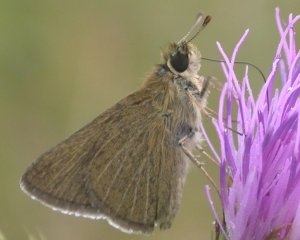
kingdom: Animalia
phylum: Arthropoda
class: Insecta
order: Lepidoptera
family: Hesperiidae
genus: Nastra
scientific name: Nastra lherminier
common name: Swarthy Skipper
